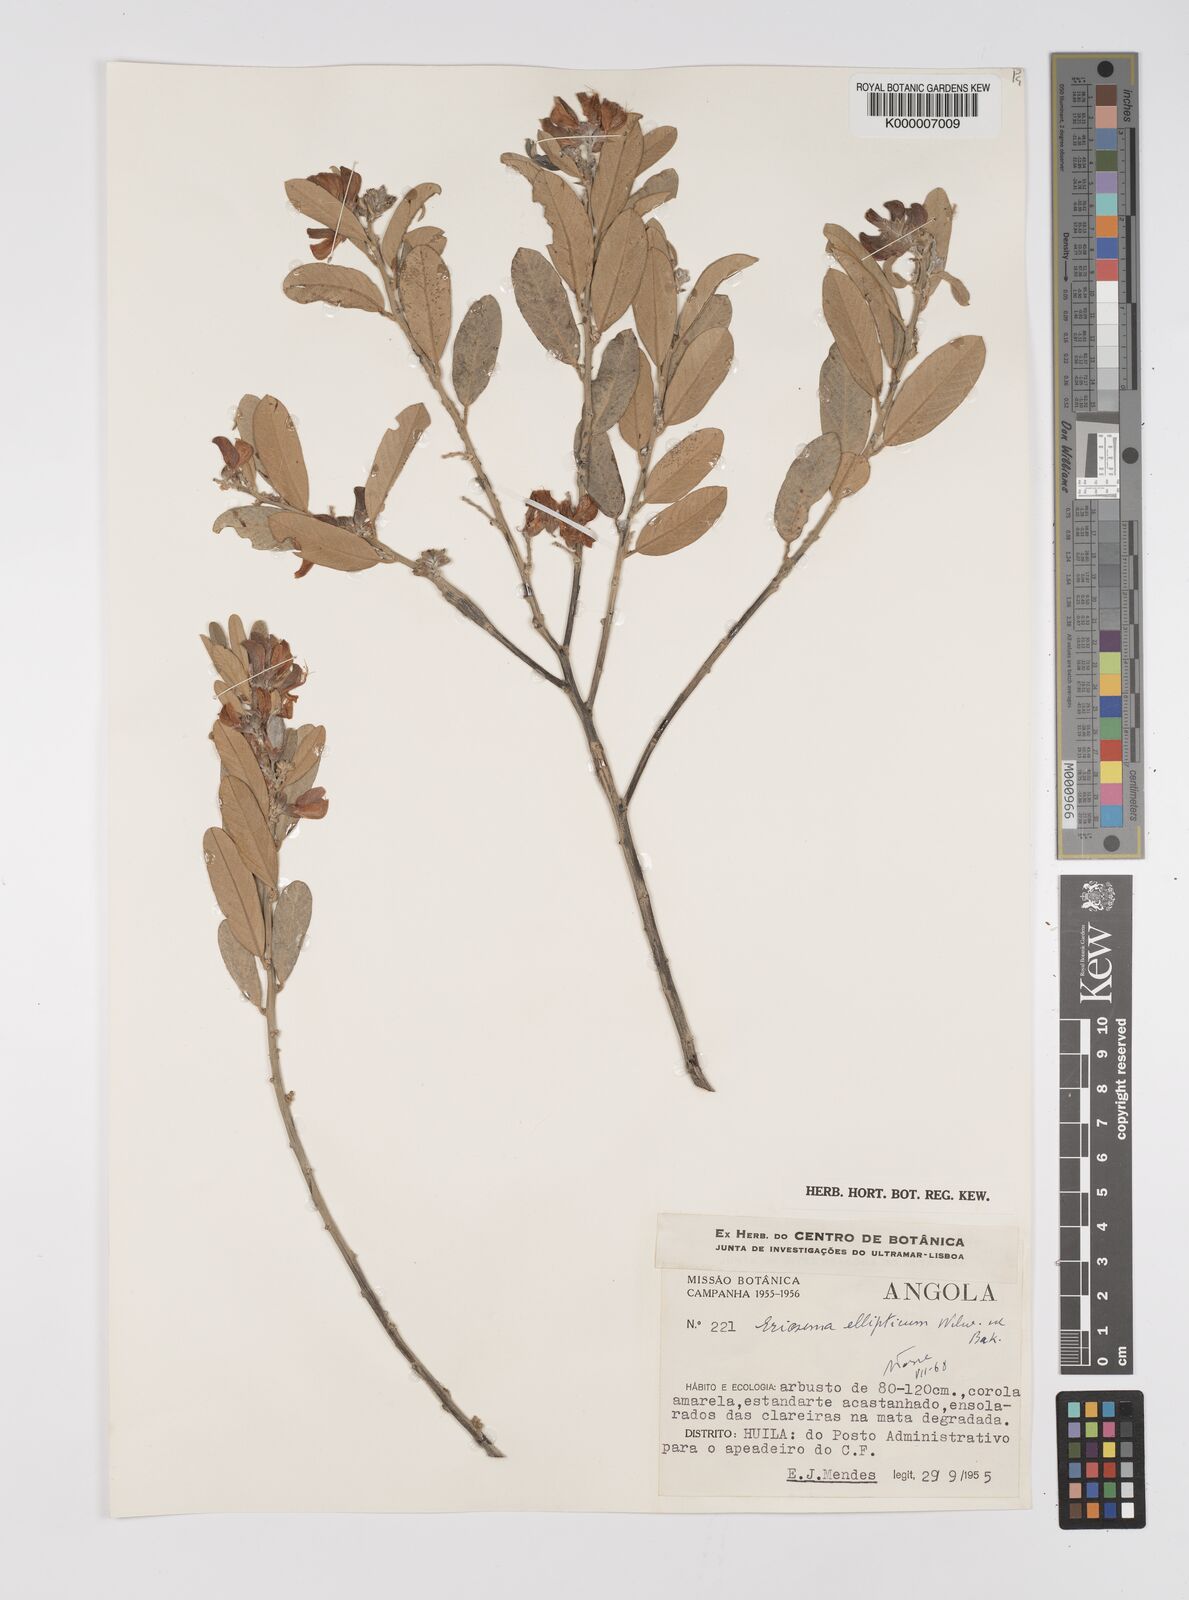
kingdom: Plantae
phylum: Tracheophyta
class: Magnoliopsida
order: Fabales
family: Fabaceae
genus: Eriosema
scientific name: Eriosema ellipticum
